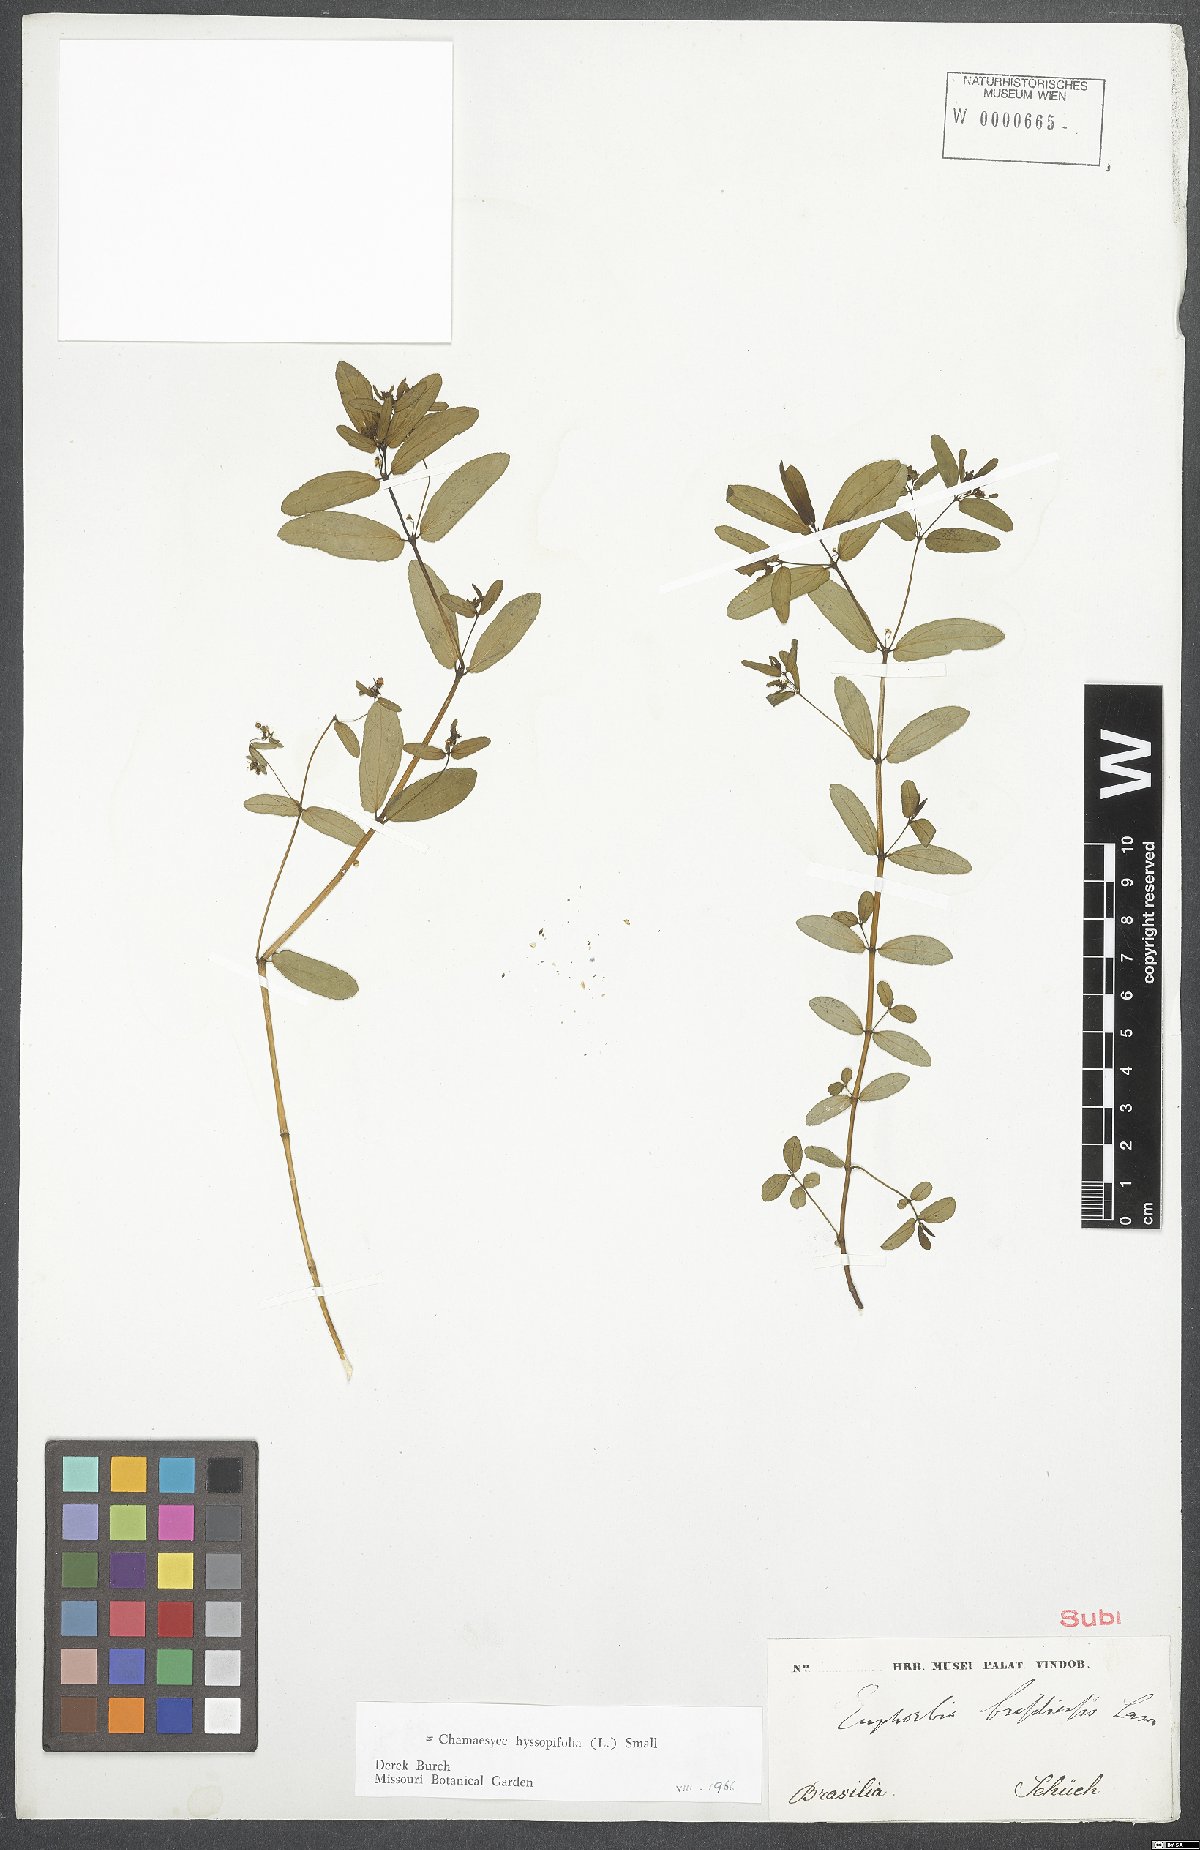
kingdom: Plantae
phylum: Tracheophyta
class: Magnoliopsida
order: Malpighiales
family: Euphorbiaceae
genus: Euphorbia
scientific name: Euphorbia hyssopifolia
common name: Hyssopleaf sandmat
